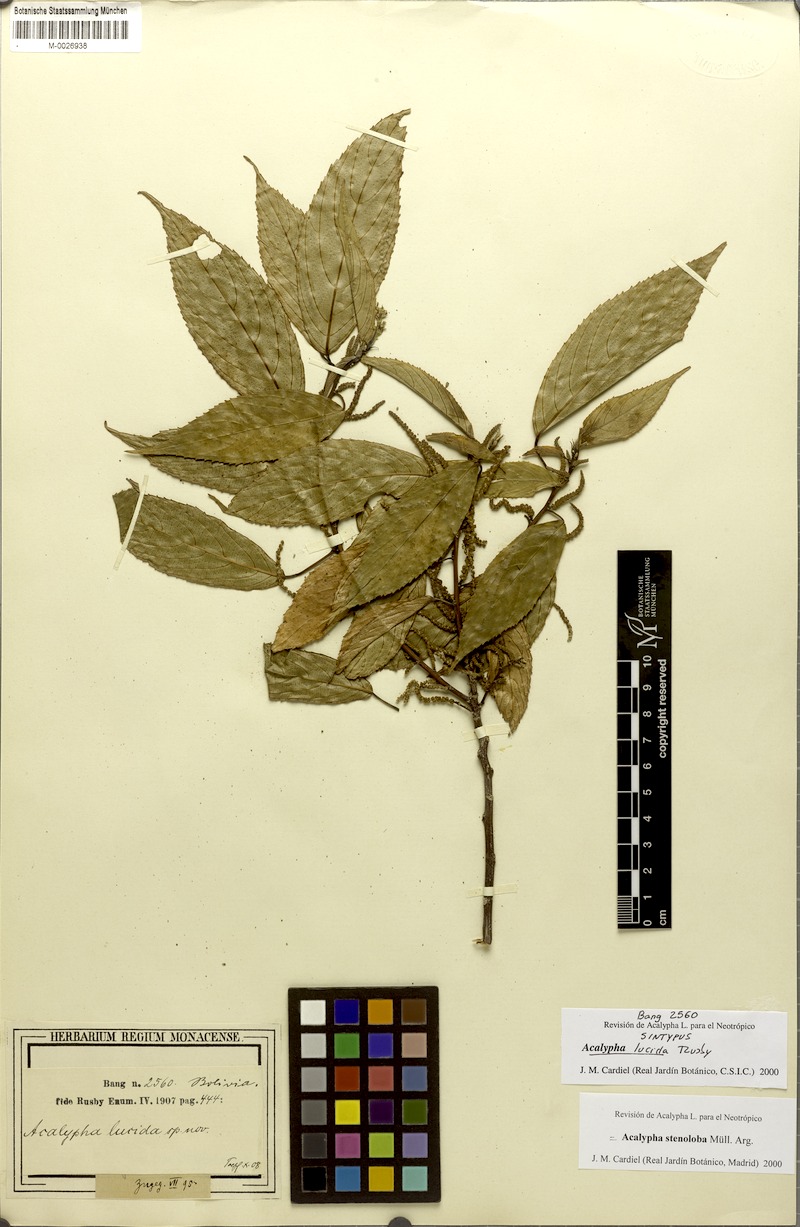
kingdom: Plantae
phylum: Tracheophyta
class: Magnoliopsida
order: Malpighiales
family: Euphorbiaceae
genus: Acalypha
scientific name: Acalypha stenoloba
